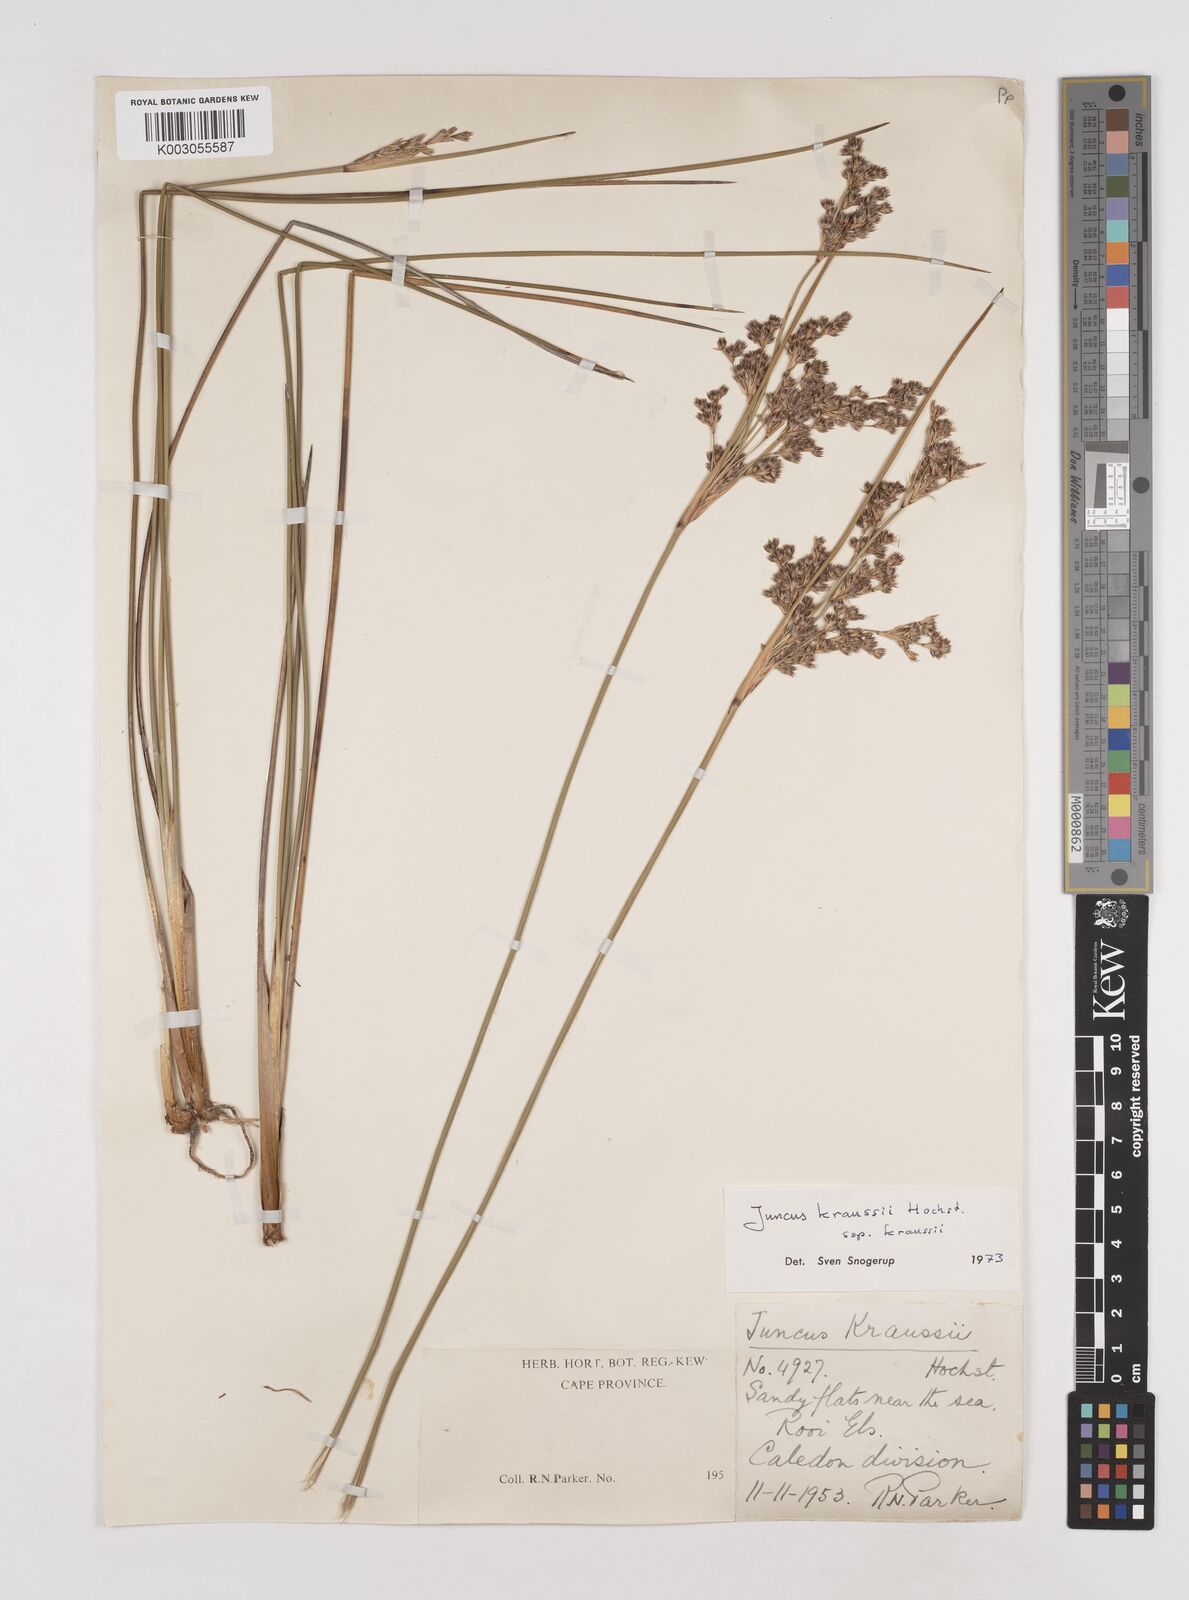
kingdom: Plantae
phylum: Tracheophyta
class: Liliopsida
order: Poales
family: Juncaceae
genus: Juncus
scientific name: Juncus kraussii
